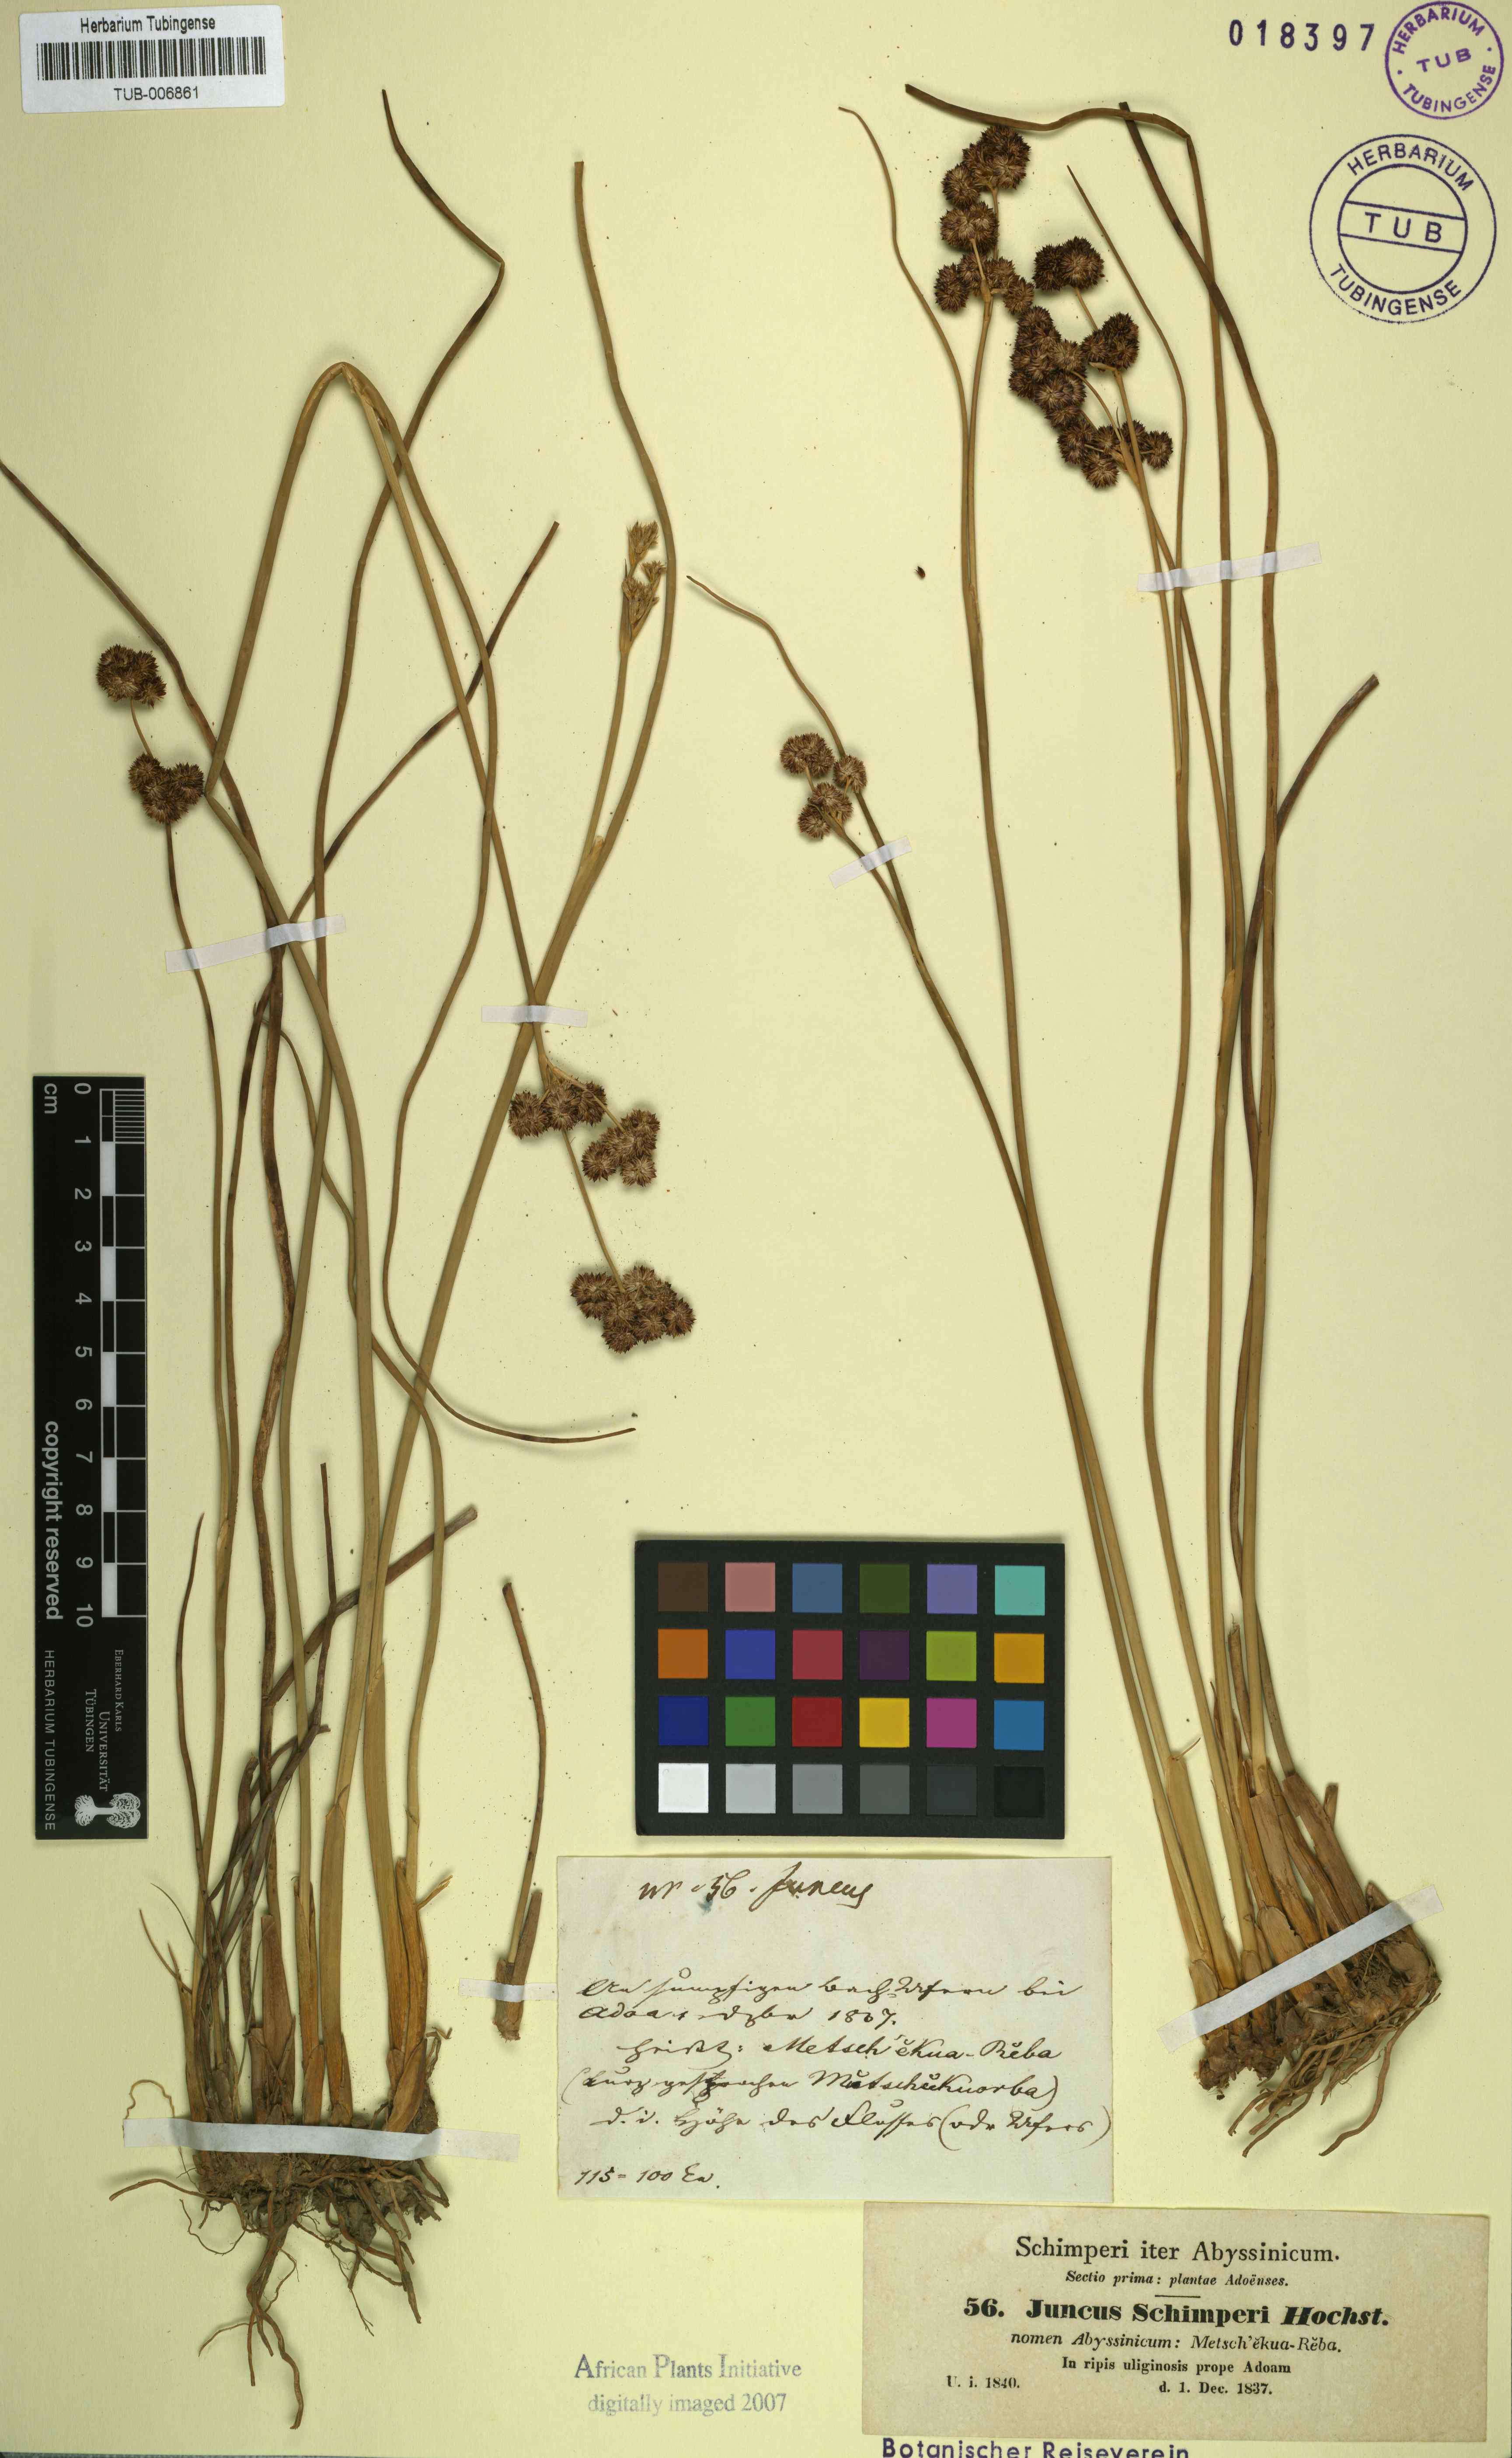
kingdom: Plantae
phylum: Tracheophyta
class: Liliopsida
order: Poales
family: Juncaceae
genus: Juncus
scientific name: Juncus punctorius
